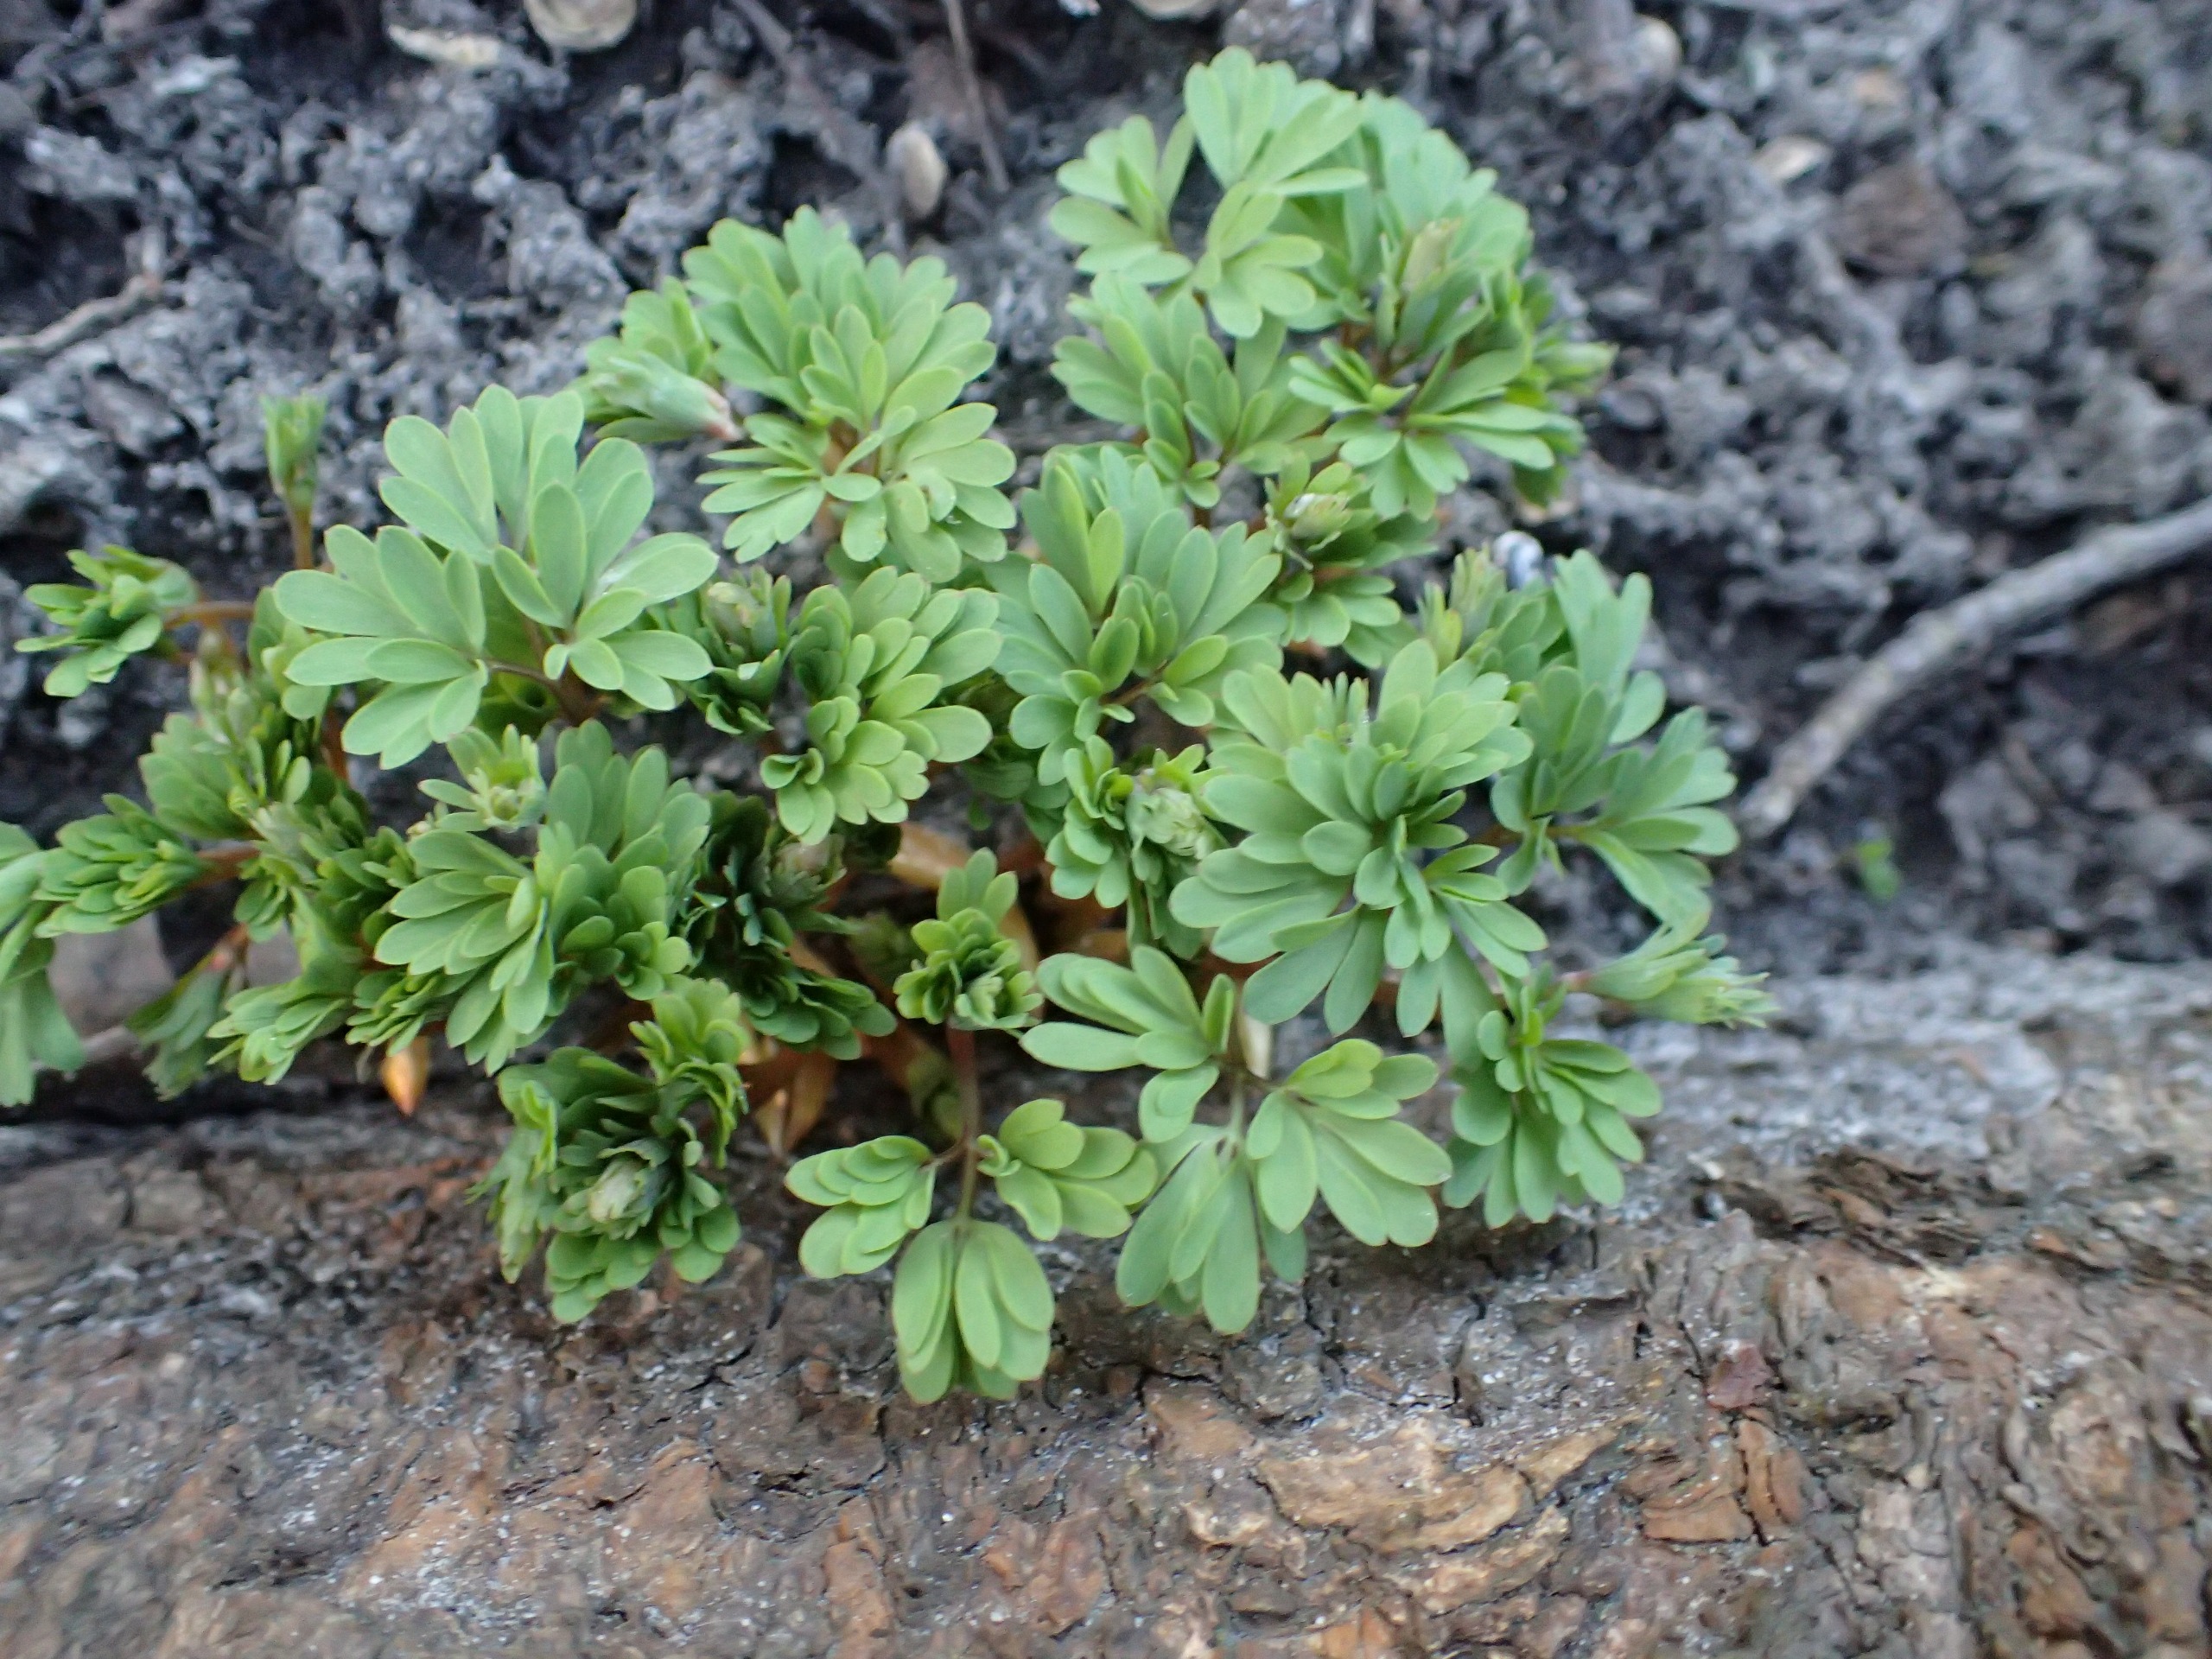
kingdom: Plantae
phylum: Tracheophyta
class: Magnoliopsida
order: Ranunculales
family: Papaveraceae
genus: Corydalis
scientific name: Corydalis solida
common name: Langstilket lærkespore
